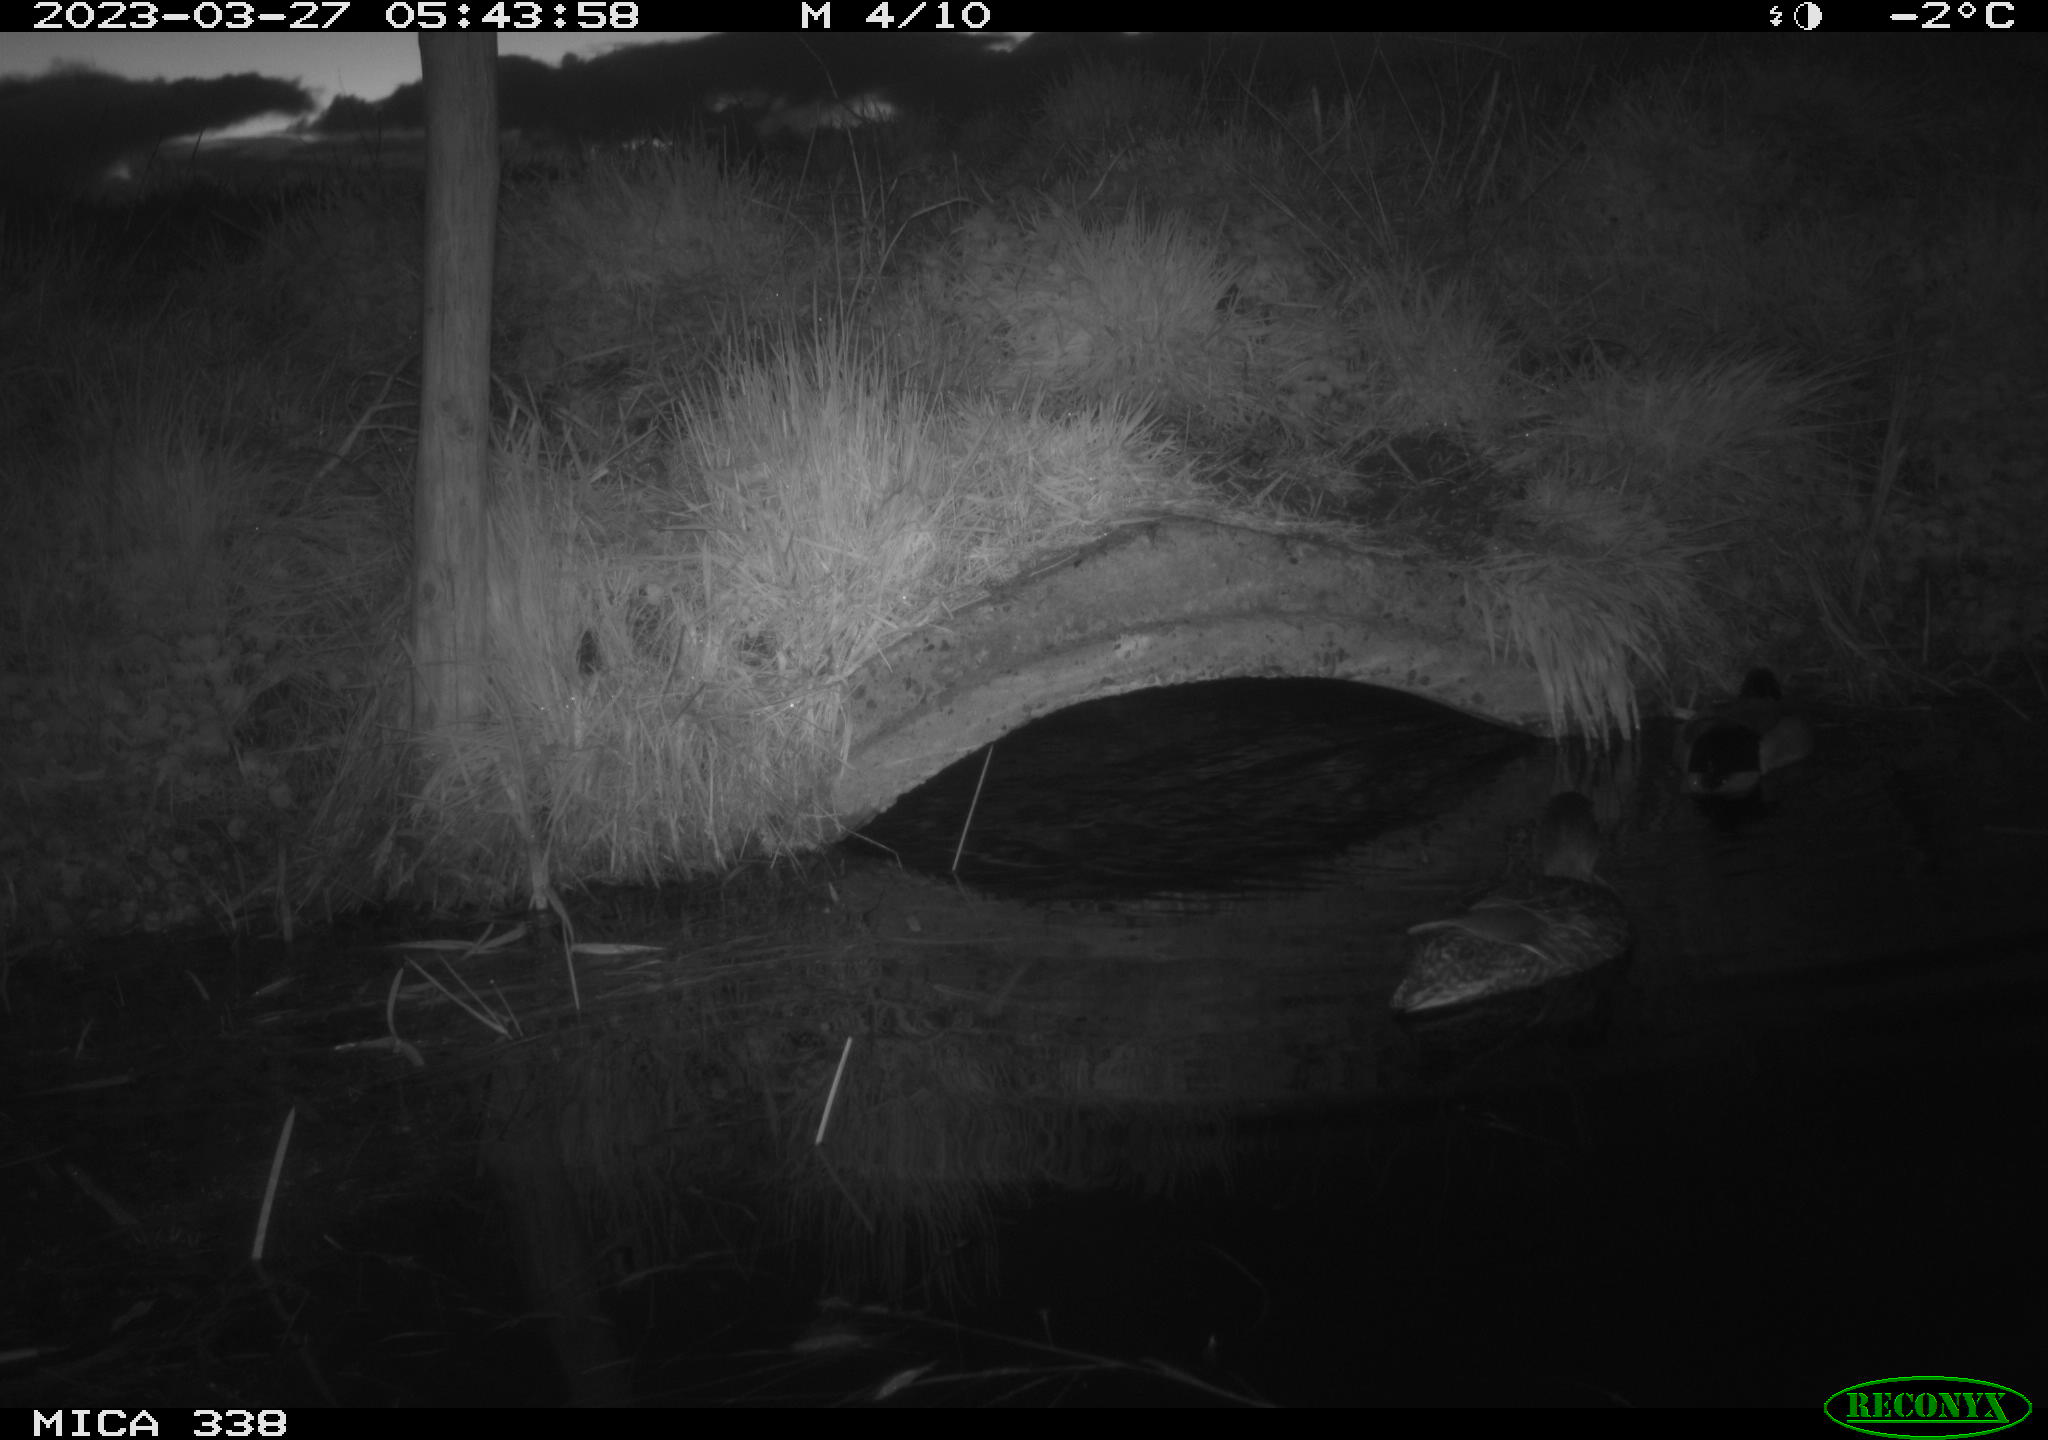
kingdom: Animalia
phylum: Chordata
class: Aves
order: Anseriformes
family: Anatidae
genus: Anas
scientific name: Anas platyrhynchos
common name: Mallard
